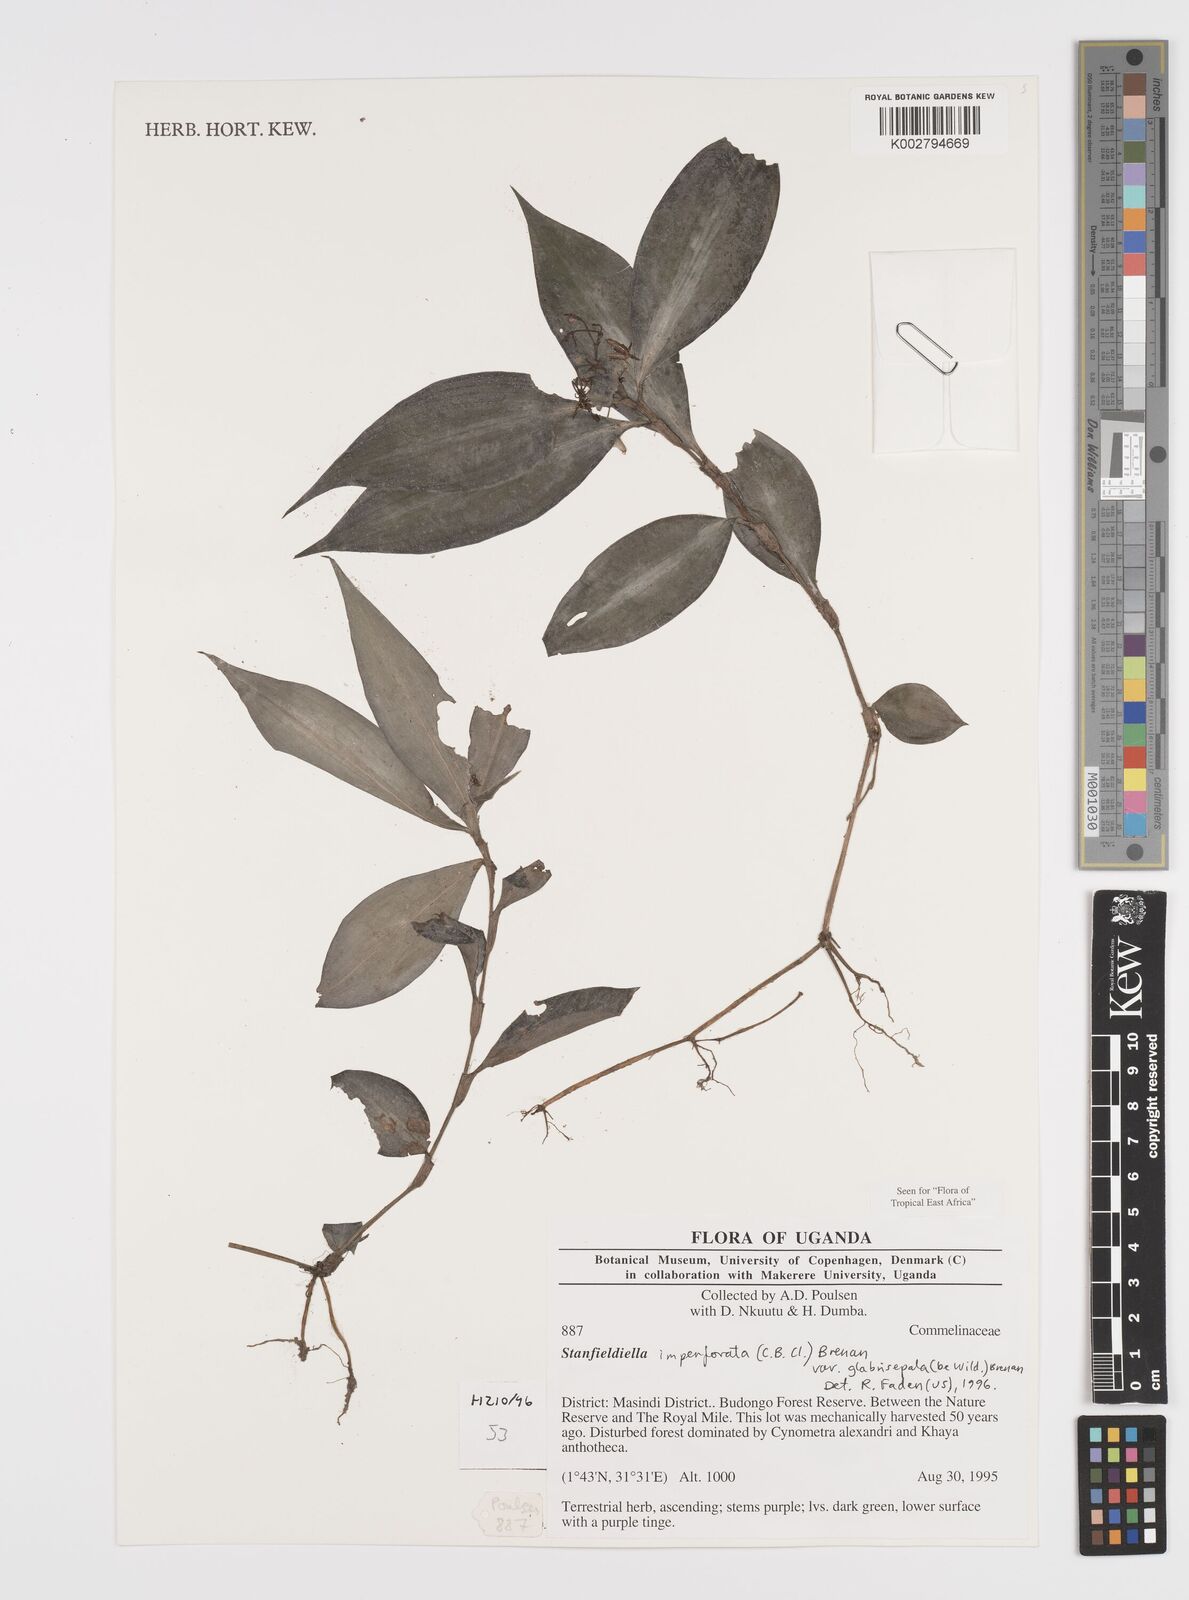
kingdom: Plantae
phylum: Tracheophyta
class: Liliopsida
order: Commelinales
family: Commelinaceae
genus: Stanfieldiella
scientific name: Stanfieldiella imperforata
